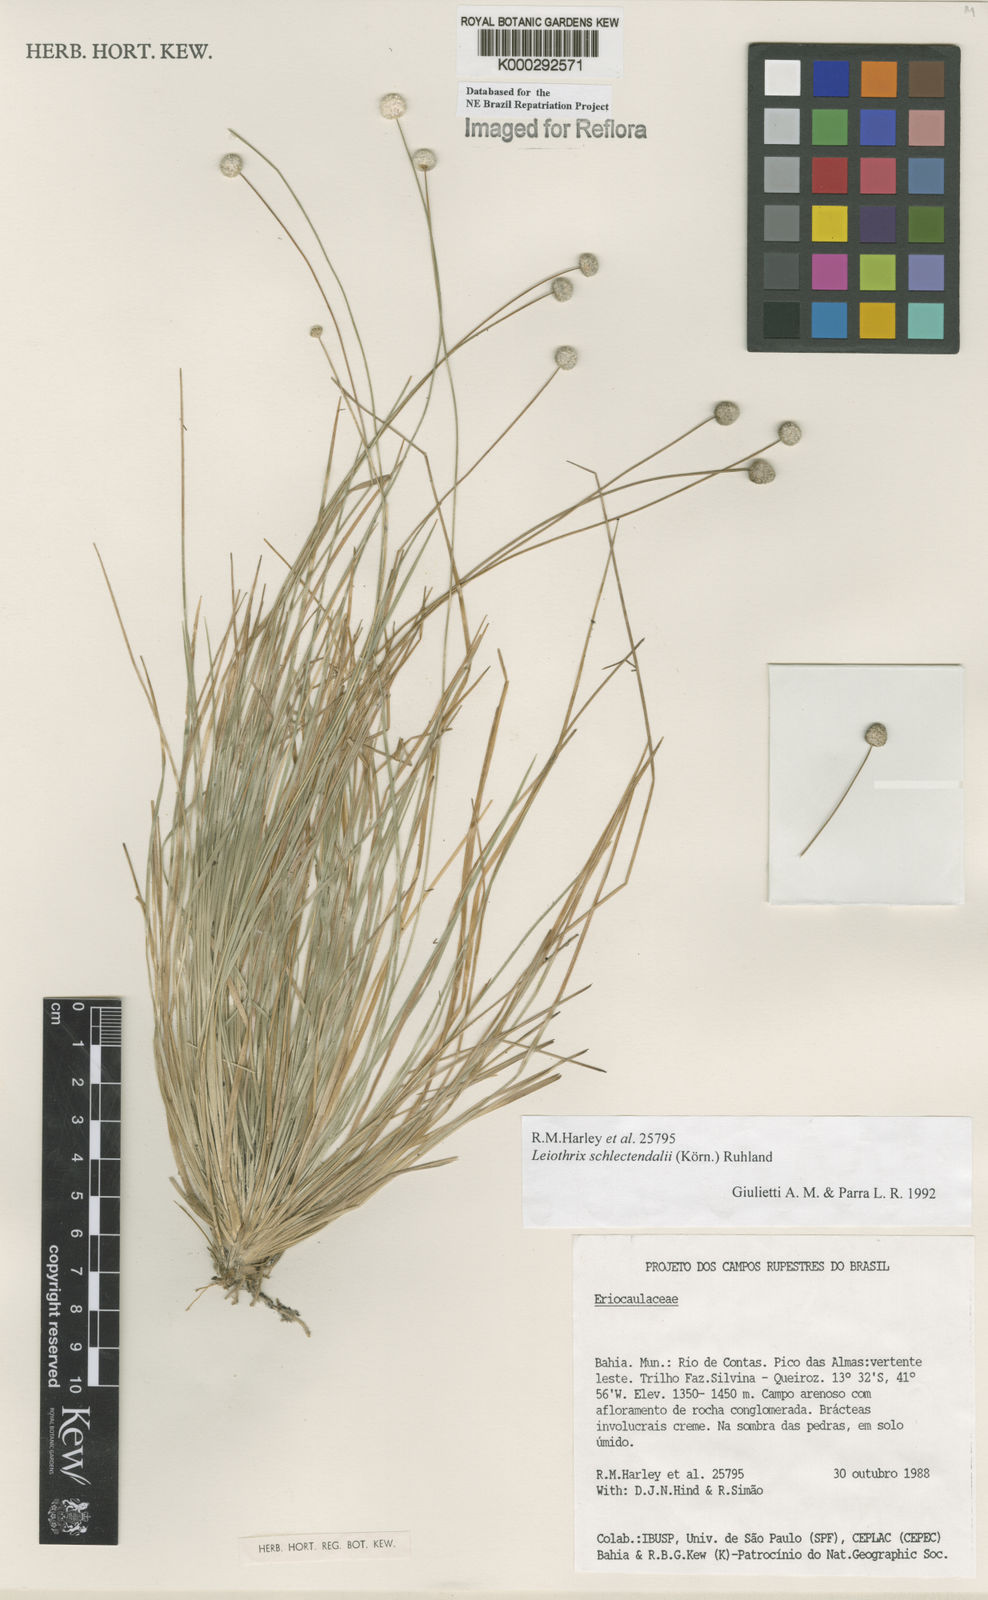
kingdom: Plantae
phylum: Tracheophyta
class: Liliopsida
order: Poales
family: Eriocaulaceae
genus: Leiothrix
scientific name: Leiothrix schlechtendalii
